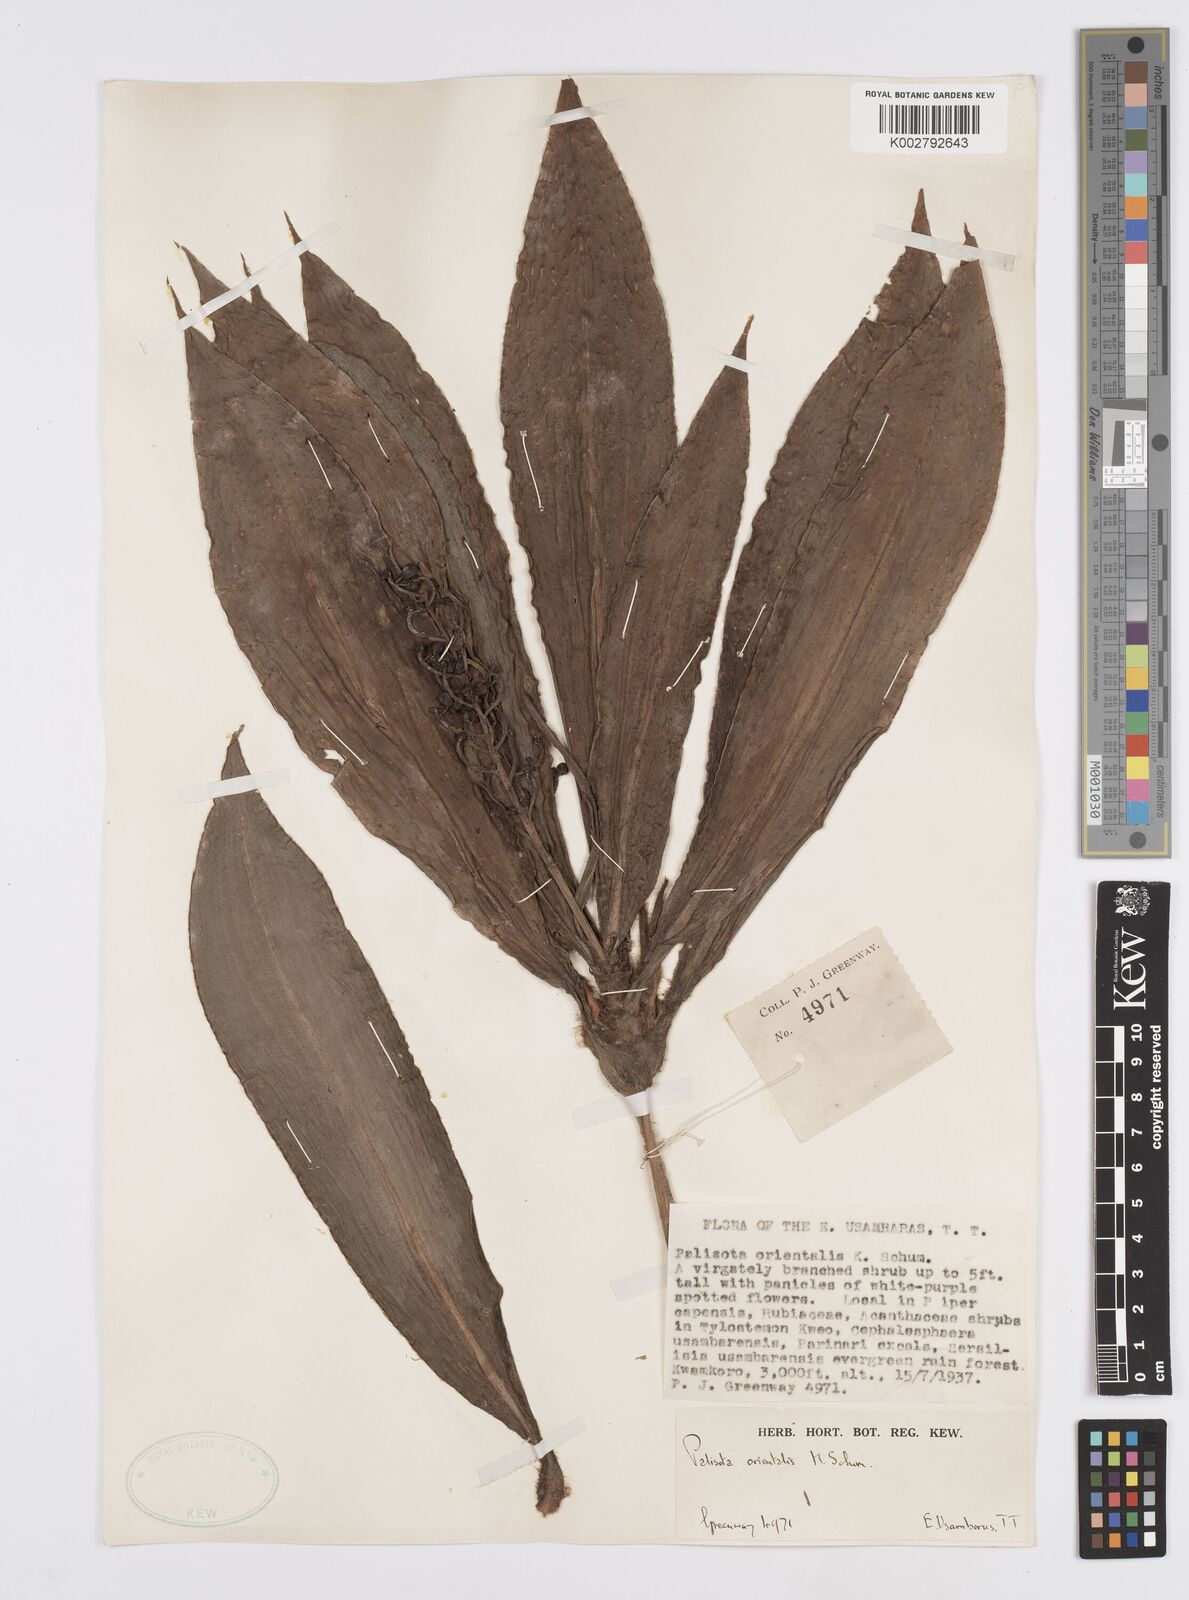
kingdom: Plantae
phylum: Tracheophyta
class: Liliopsida
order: Commelinales
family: Commelinaceae
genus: Palisota
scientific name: Palisota orientalis
